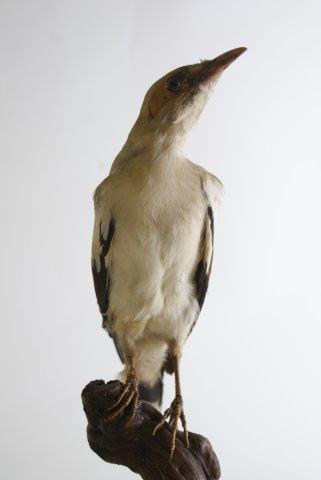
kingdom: Animalia
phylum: Chordata
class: Aves
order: Passeriformes
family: Sturnidae
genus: Acridotheres
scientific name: Acridotheres melanopterus
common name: Black-winged starling
